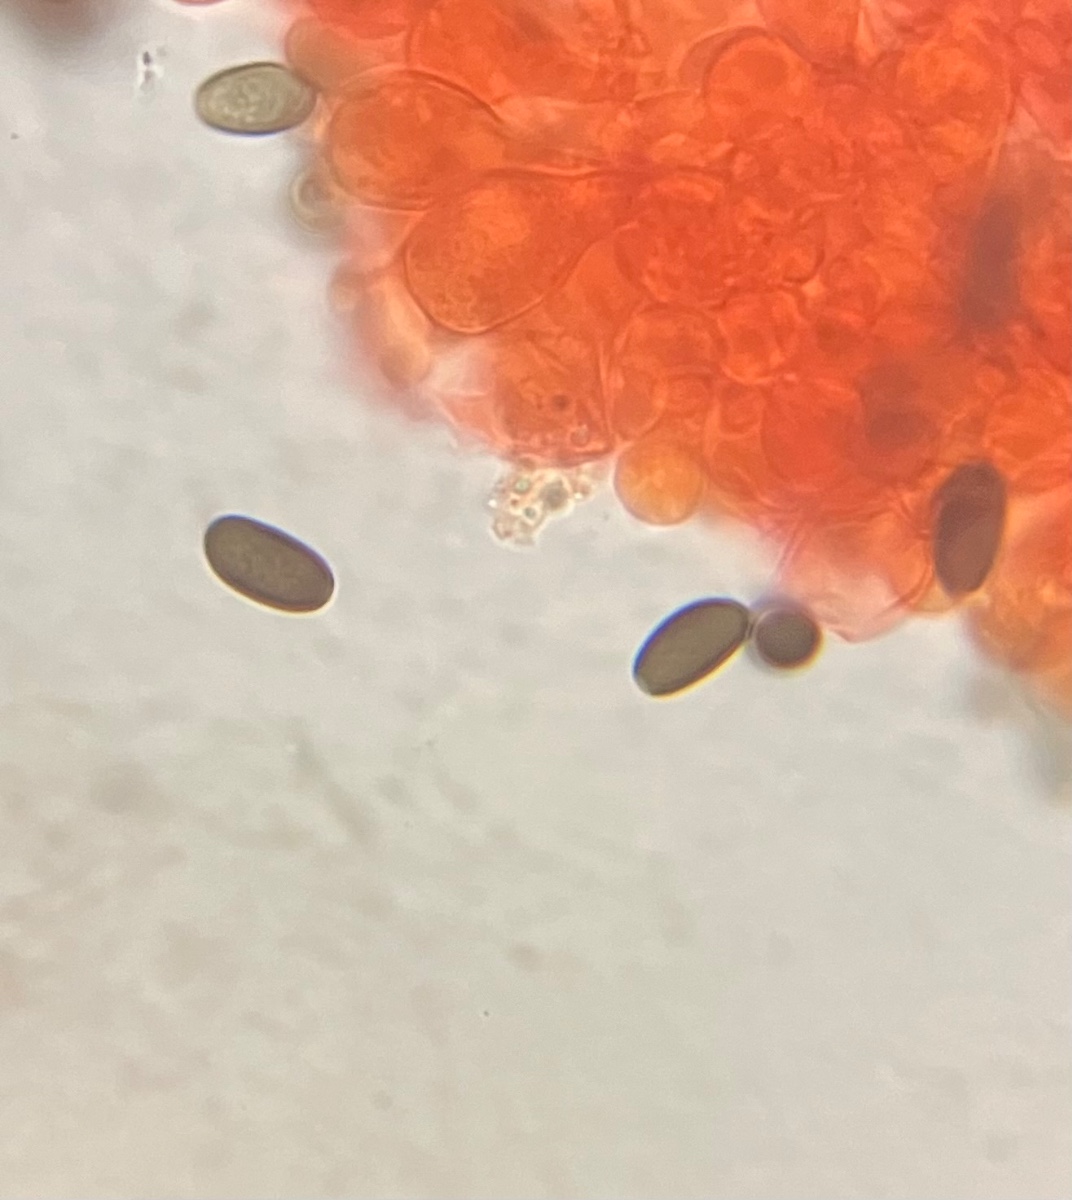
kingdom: Fungi
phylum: Basidiomycota
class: Agaricomycetes
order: Agaricales
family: Psathyrellaceae
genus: Psathyrella
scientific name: Psathyrella
